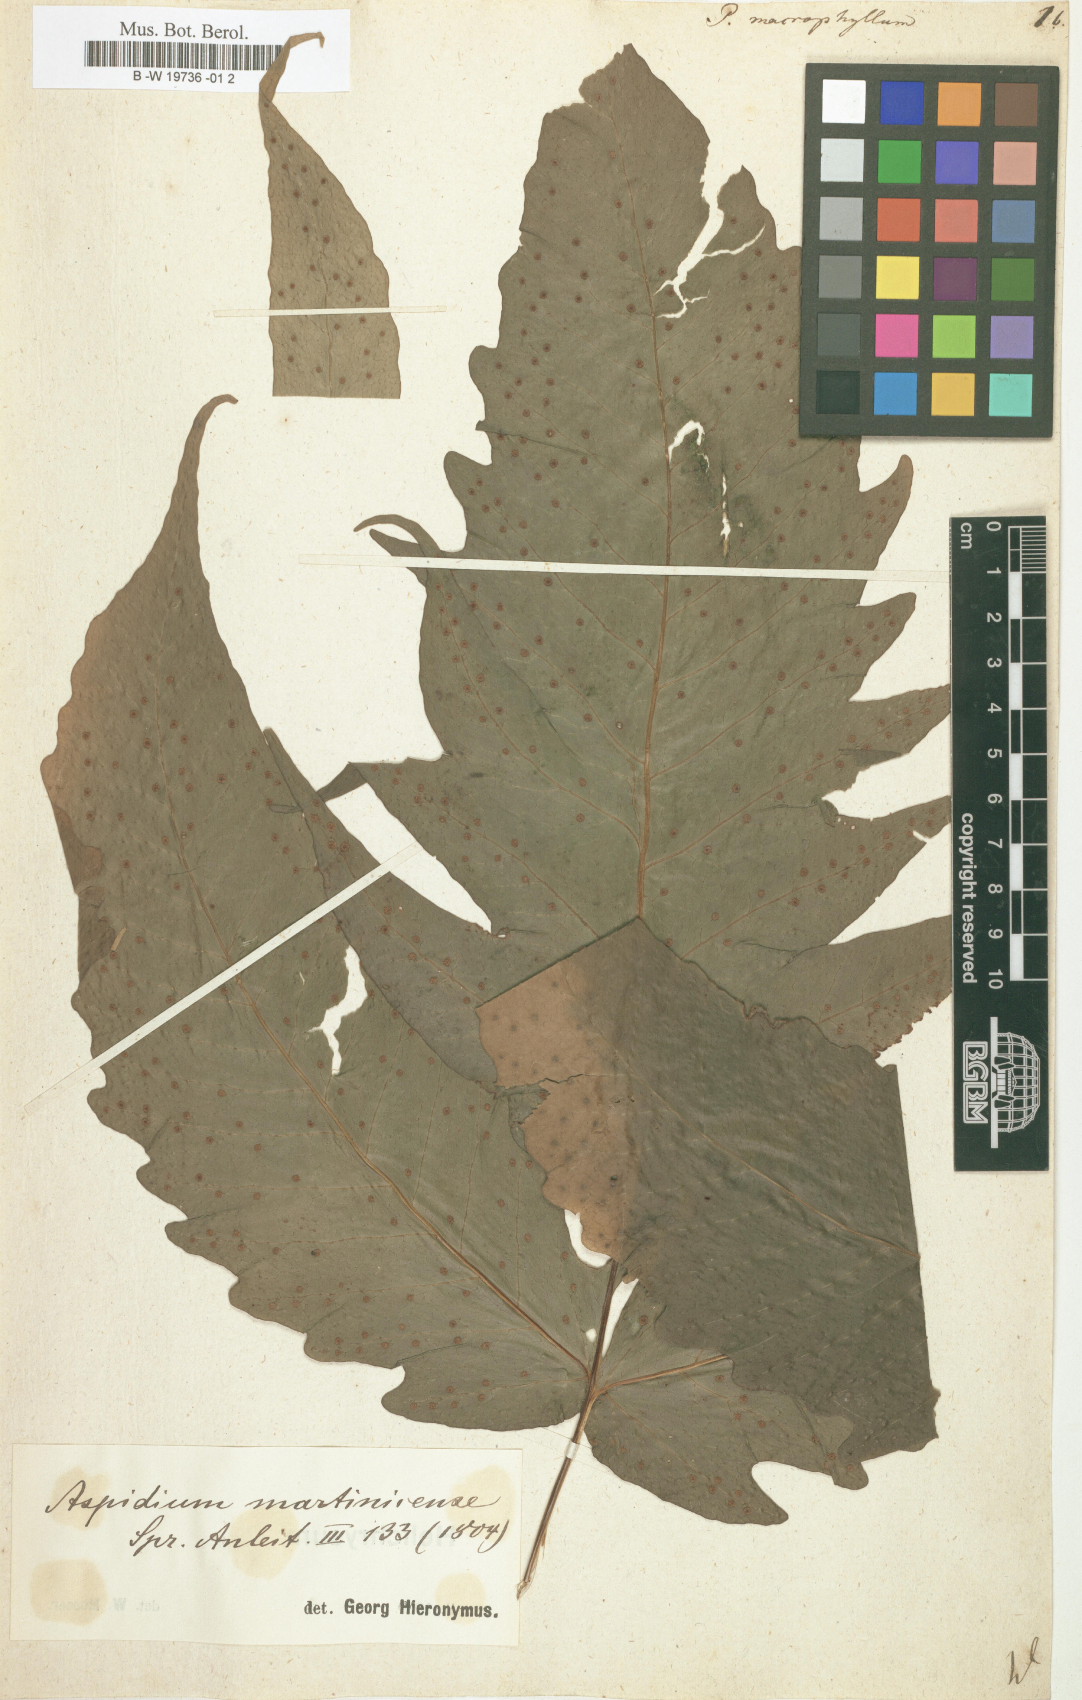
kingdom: Plantae
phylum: Tracheophyta
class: Polypodiopsida
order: Polypodiales
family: Tectariaceae
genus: Tectaria
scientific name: Tectaria incisa
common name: Incised halberd fern
